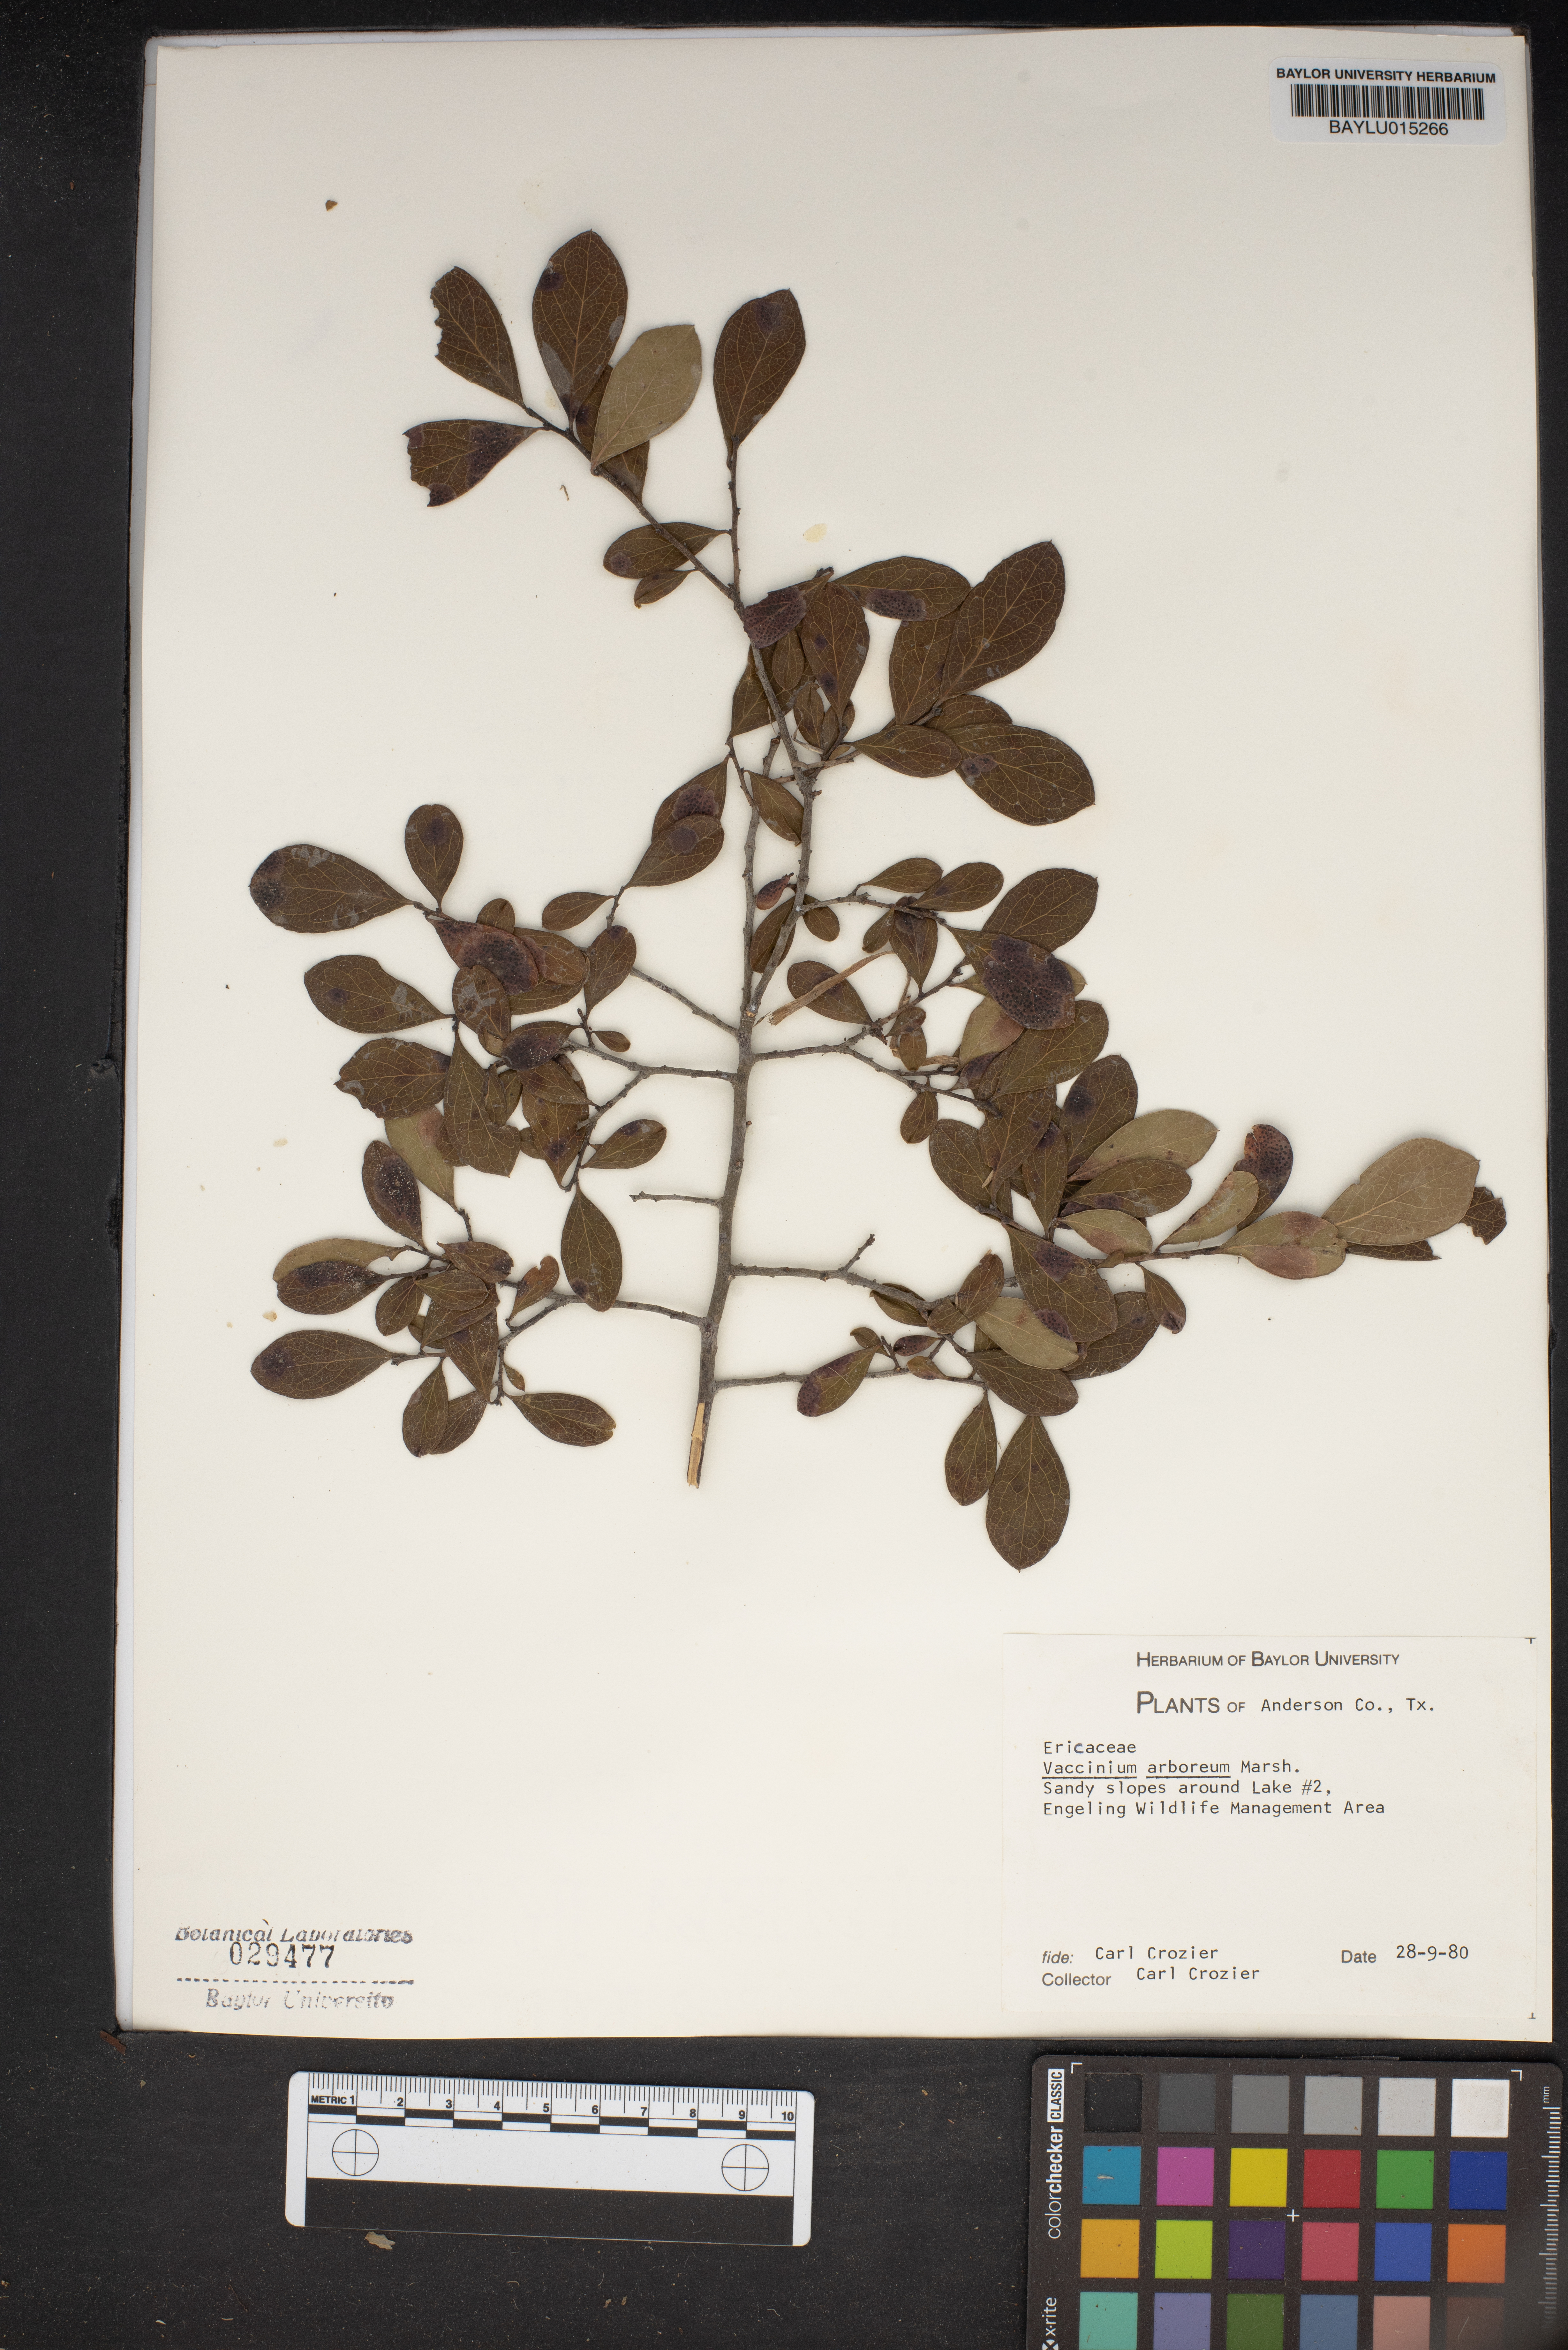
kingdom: Plantae
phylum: Tracheophyta
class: Magnoliopsida
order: Ericales
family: Ericaceae
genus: Vaccinium
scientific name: Vaccinium arboreum
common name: Farkleberry
